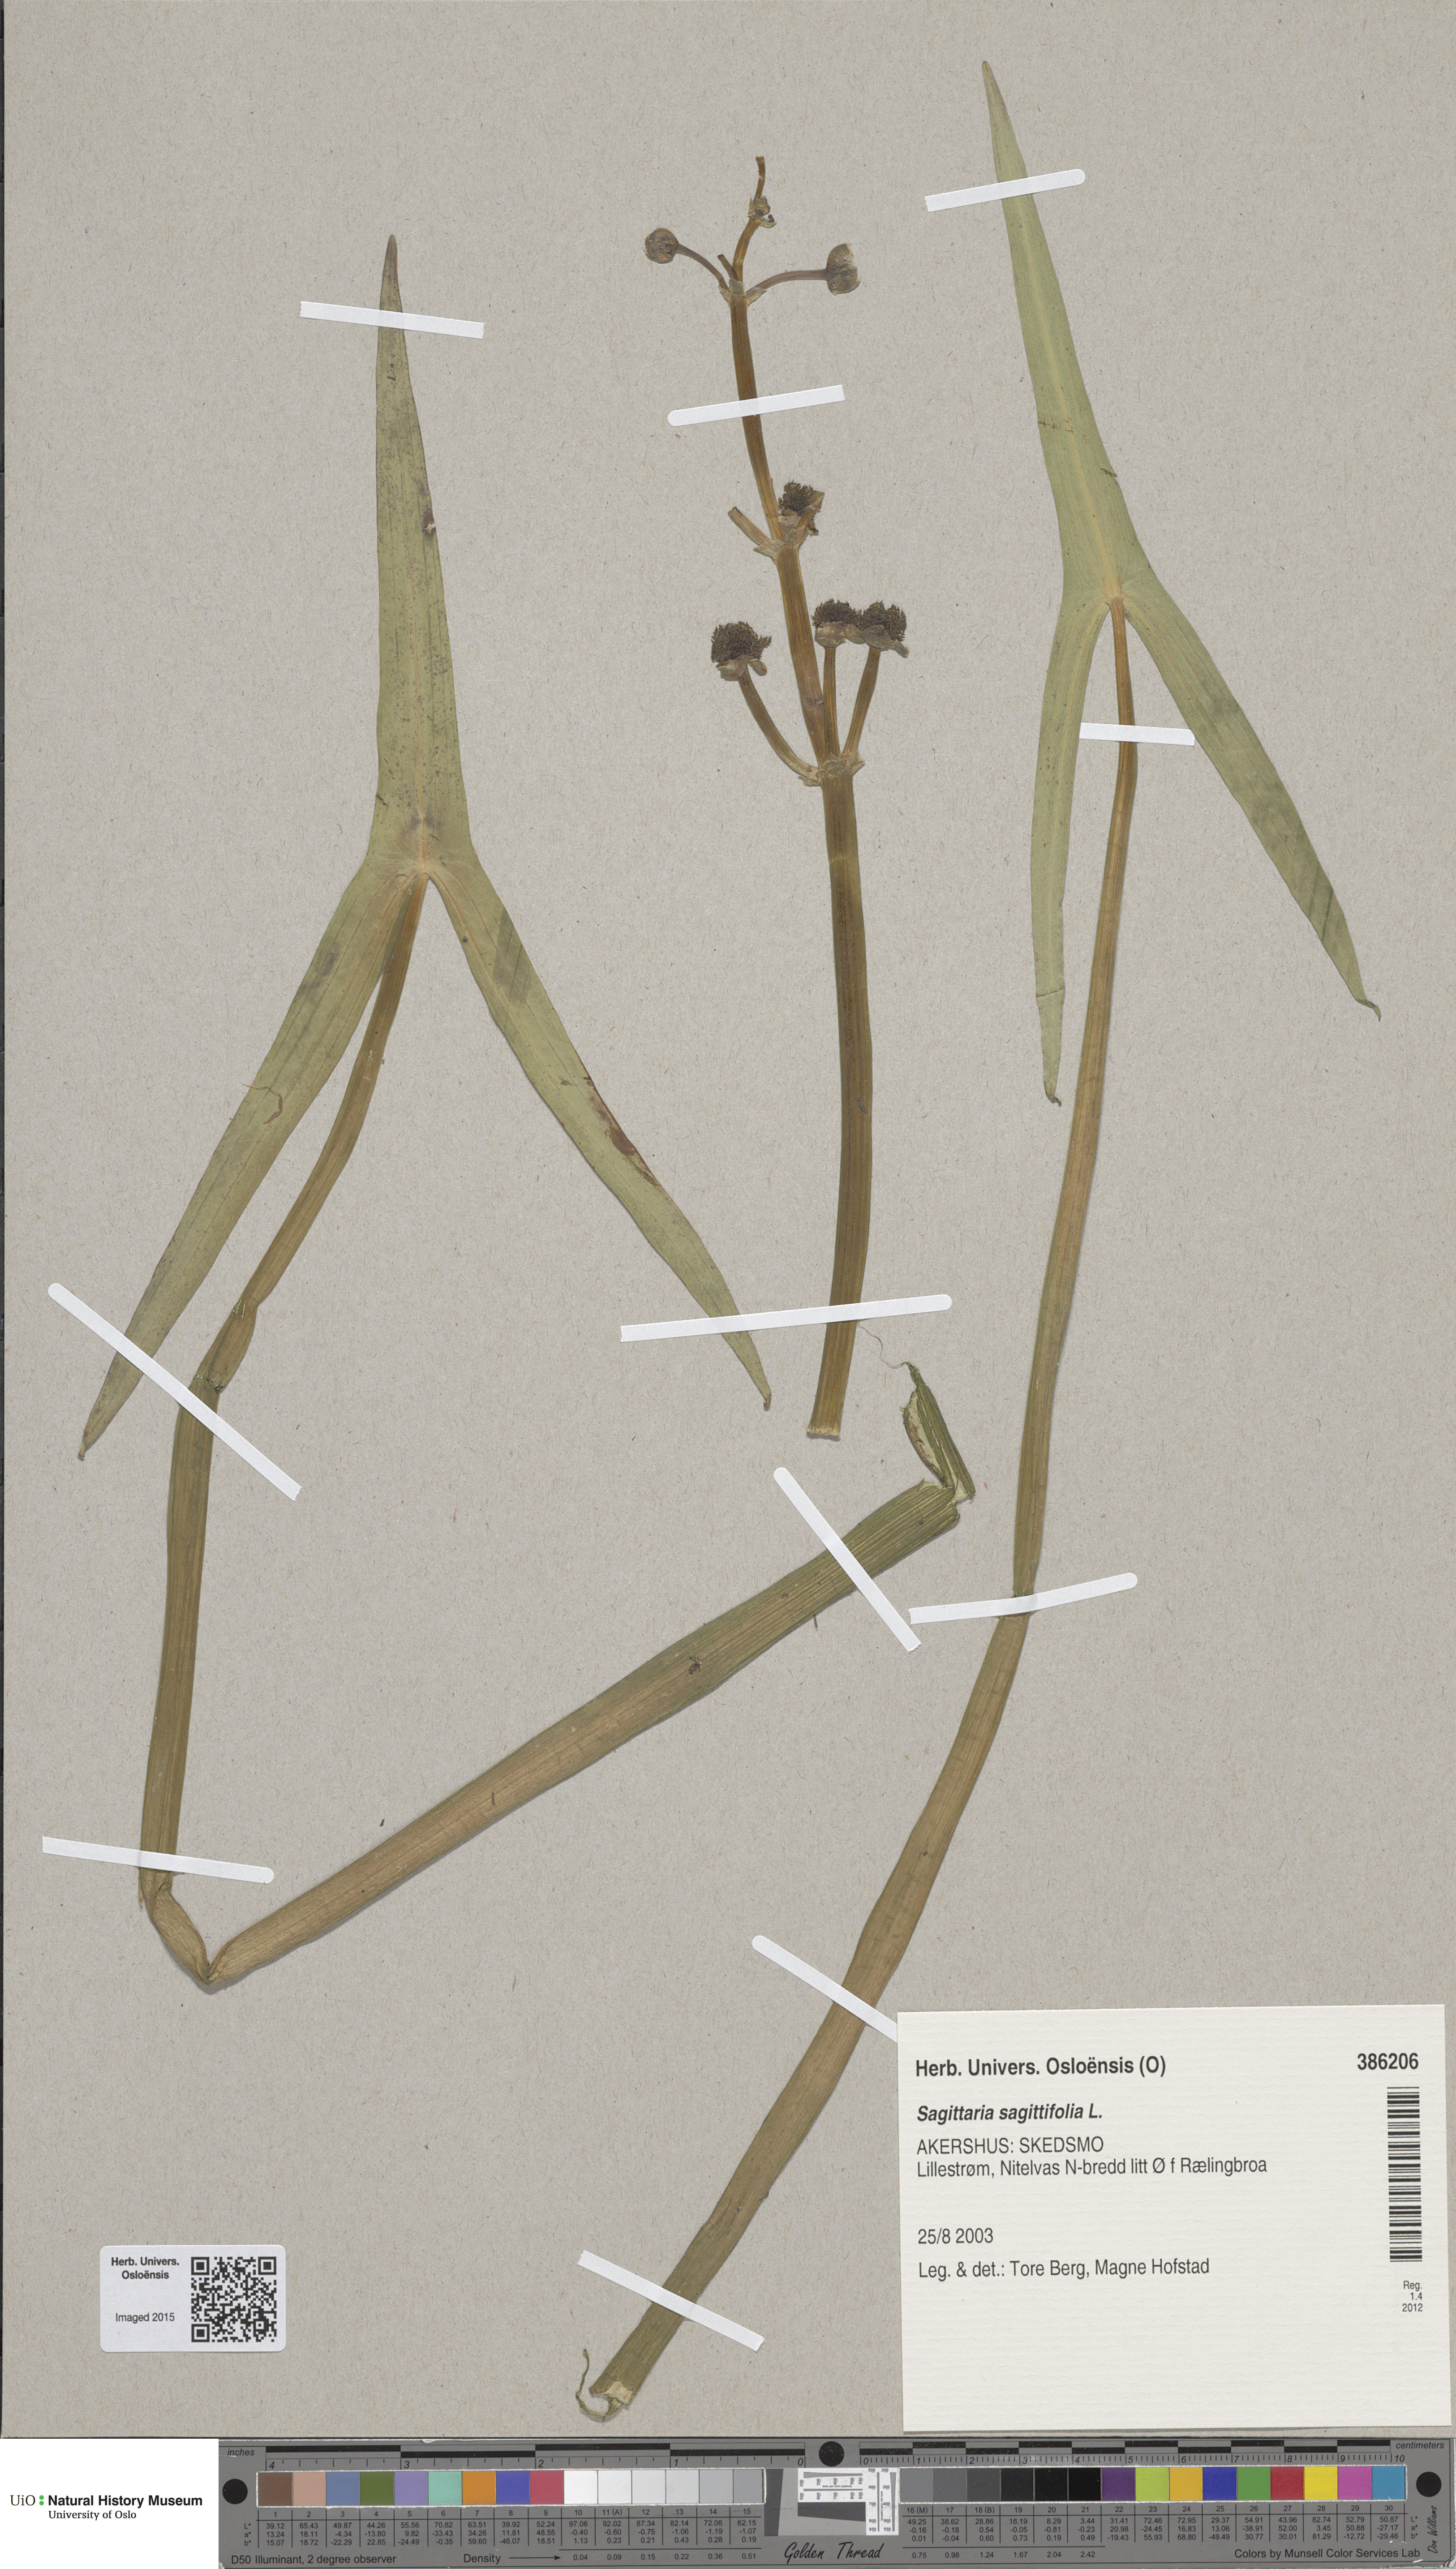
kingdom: Plantae
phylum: Tracheophyta
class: Liliopsida
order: Alismatales
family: Alismataceae
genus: Sagittaria
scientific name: Sagittaria sagittifolia
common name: Arrowhead
